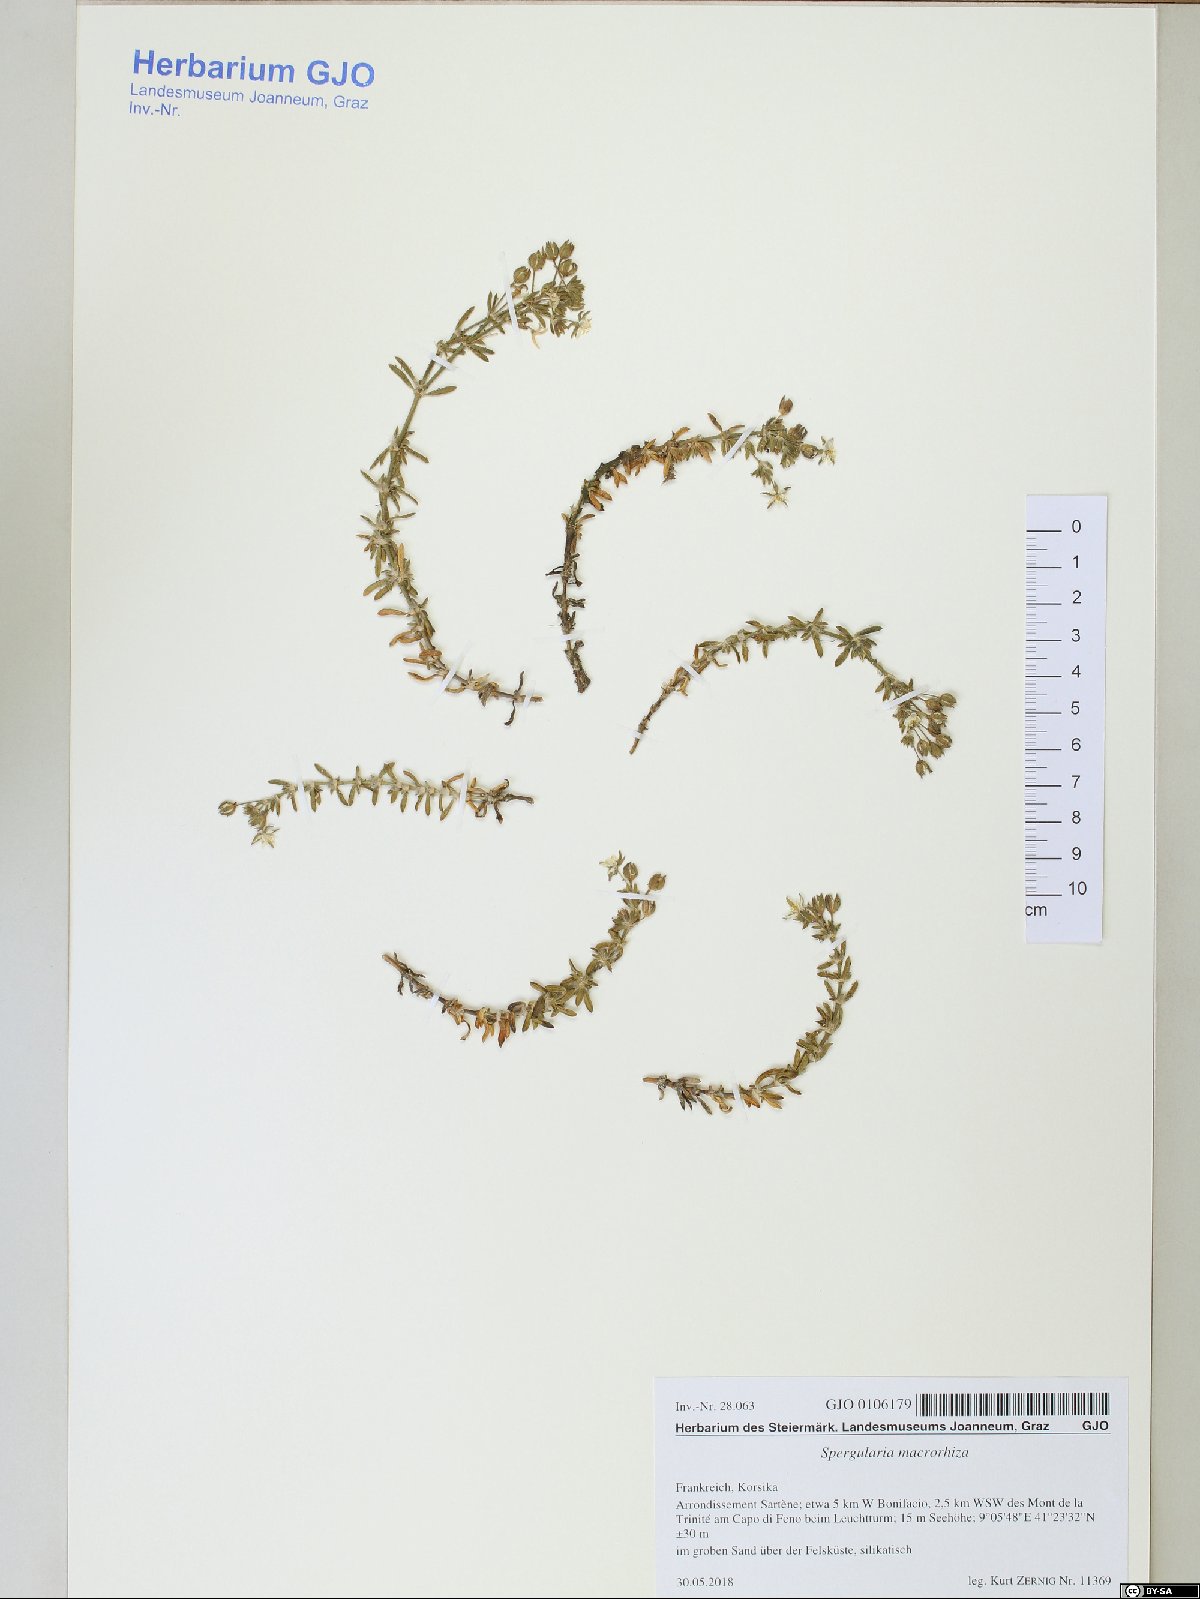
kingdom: Plantae
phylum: Tracheophyta
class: Magnoliopsida
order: Caryophyllales
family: Caryophyllaceae
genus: Spergularia
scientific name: Spergularia macrorrhiza
